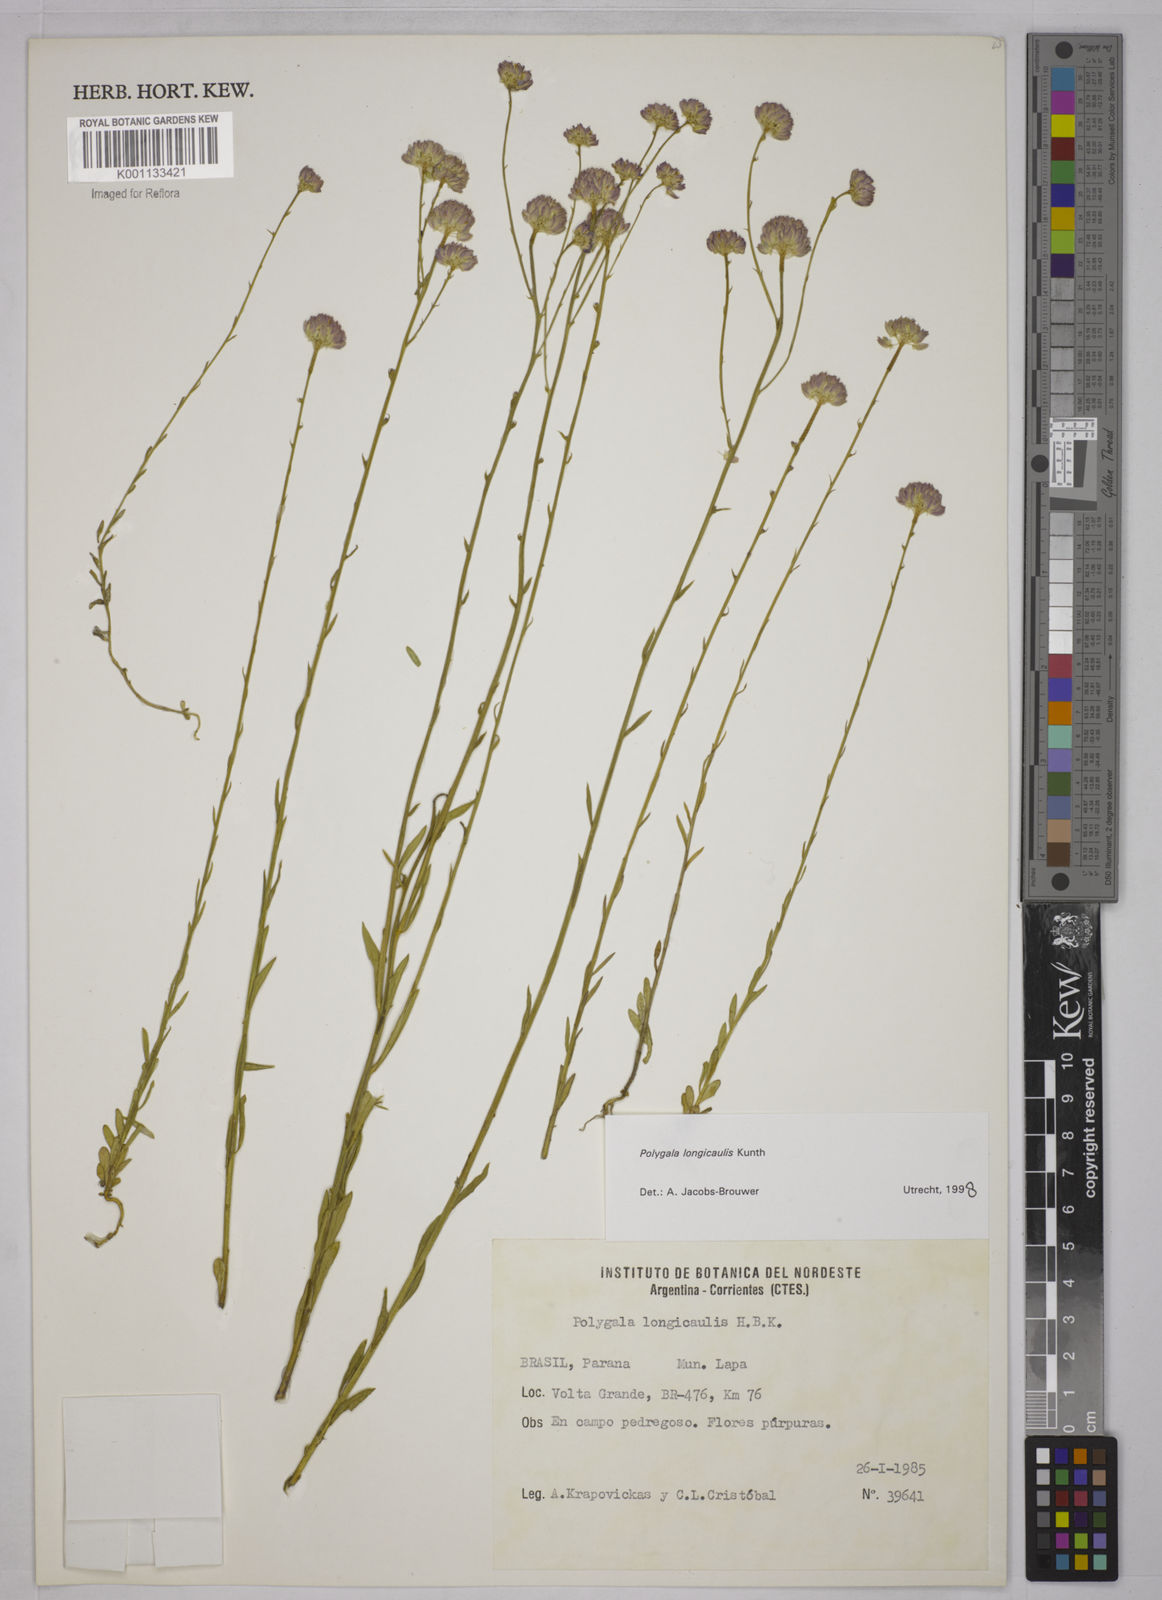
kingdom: Plantae
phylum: Tracheophyta
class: Magnoliopsida
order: Fabales
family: Polygalaceae
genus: Polygala
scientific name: Polygala longicaulis
